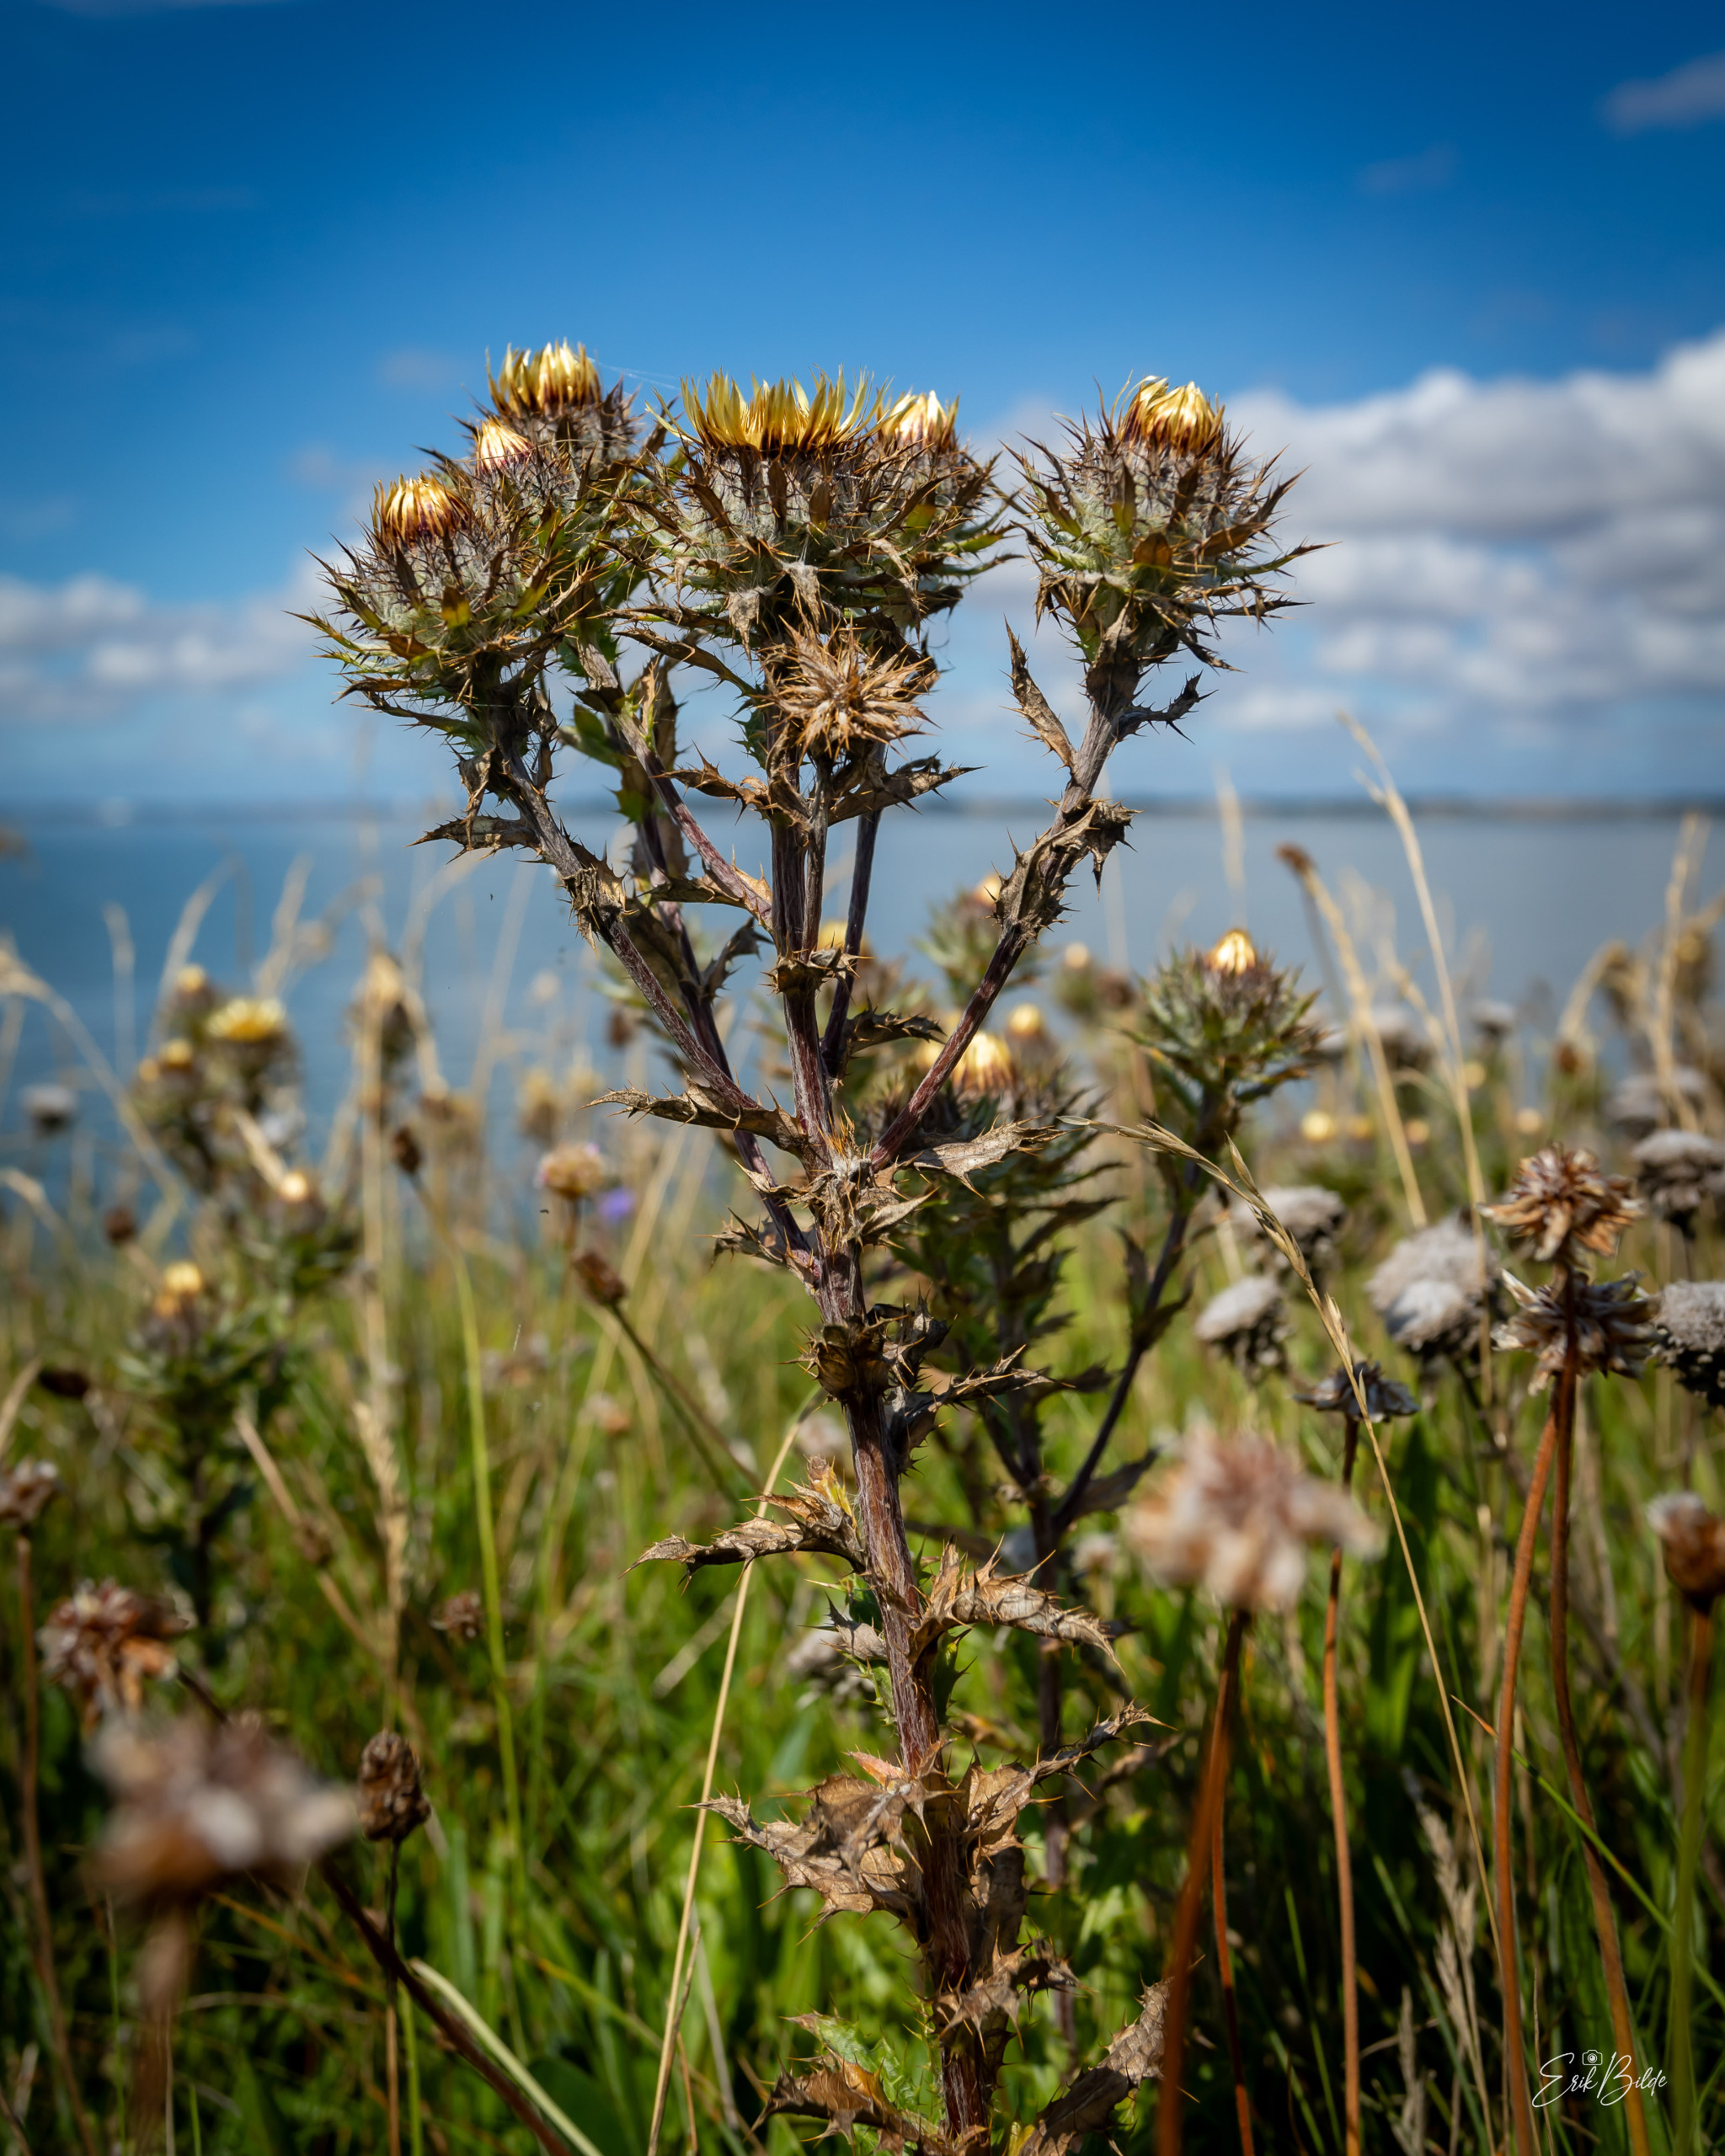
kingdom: Plantae
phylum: Tracheophyta
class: Magnoliopsida
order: Asterales
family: Asteraceae
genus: Carlina
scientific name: Carlina vulgaris
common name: Bakketidsel
